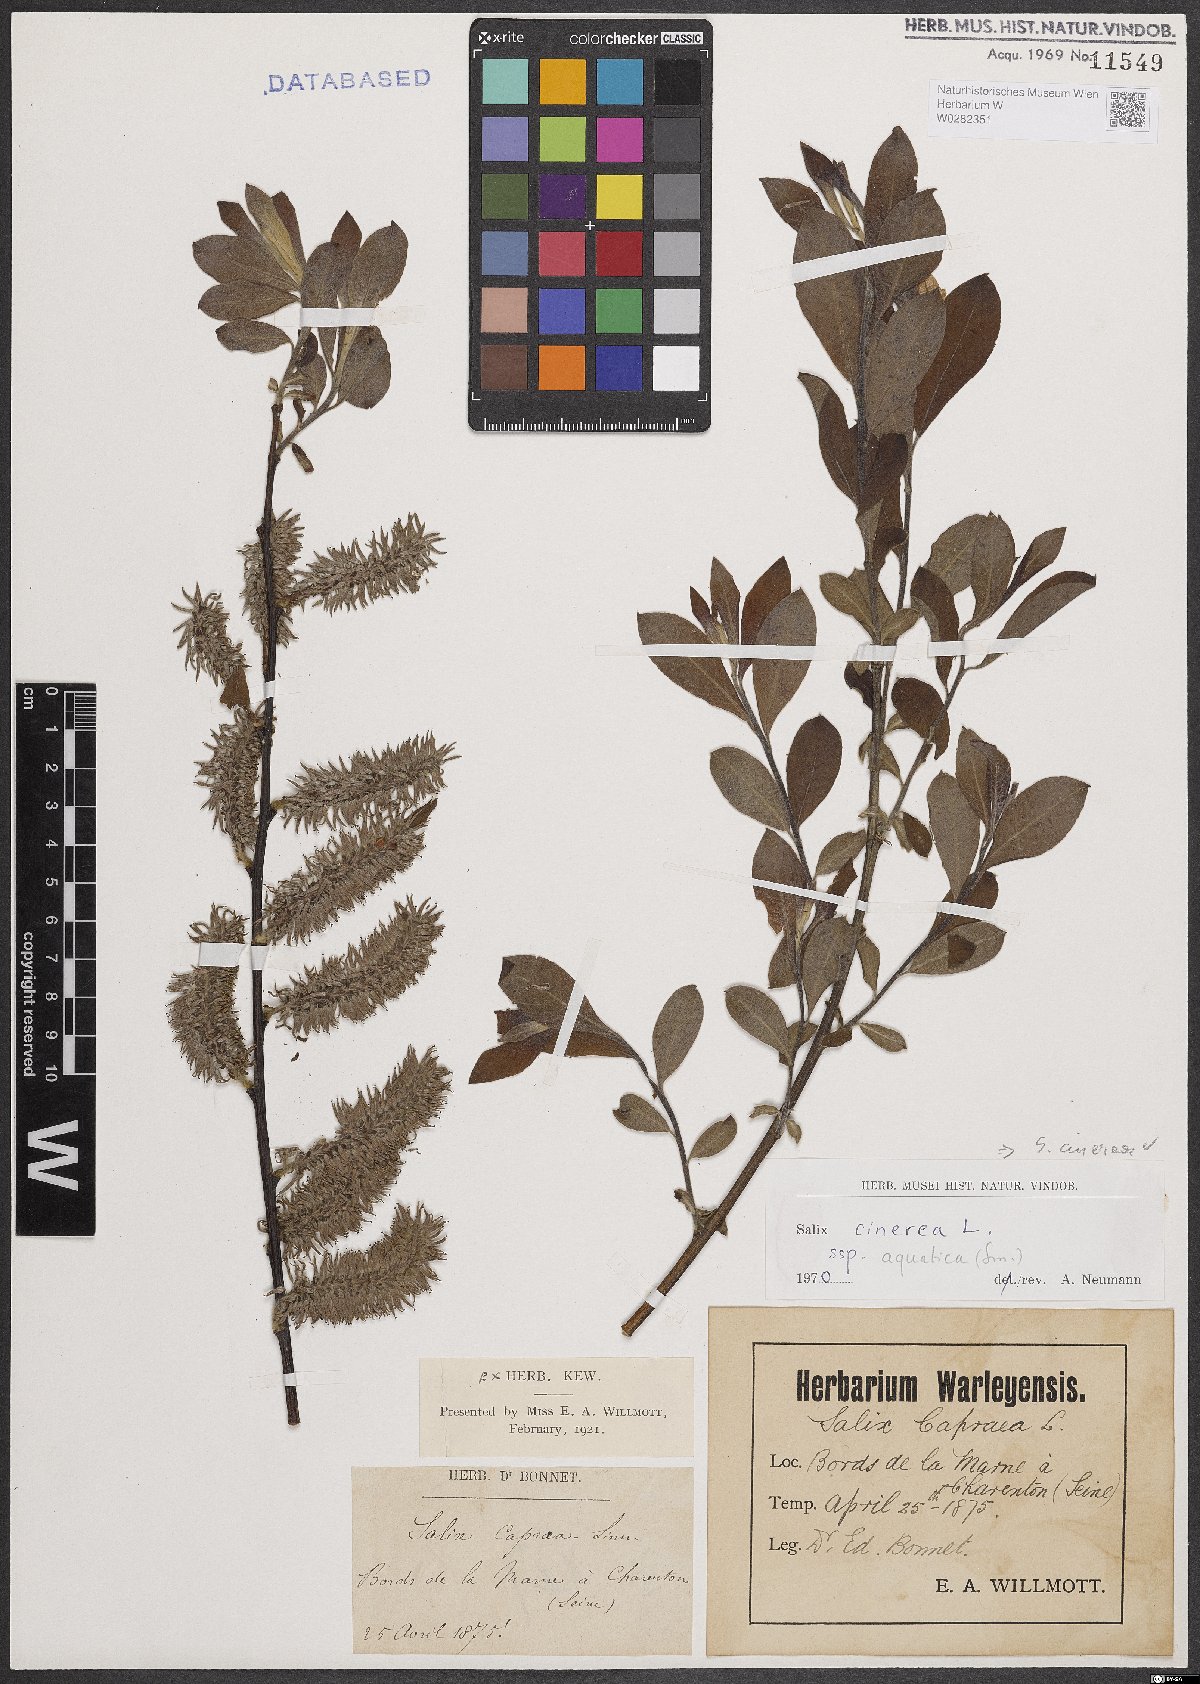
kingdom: Plantae
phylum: Tracheophyta
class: Magnoliopsida
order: Malpighiales
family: Salicaceae
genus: Salix
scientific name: Salix cinerea
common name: Common sallow
